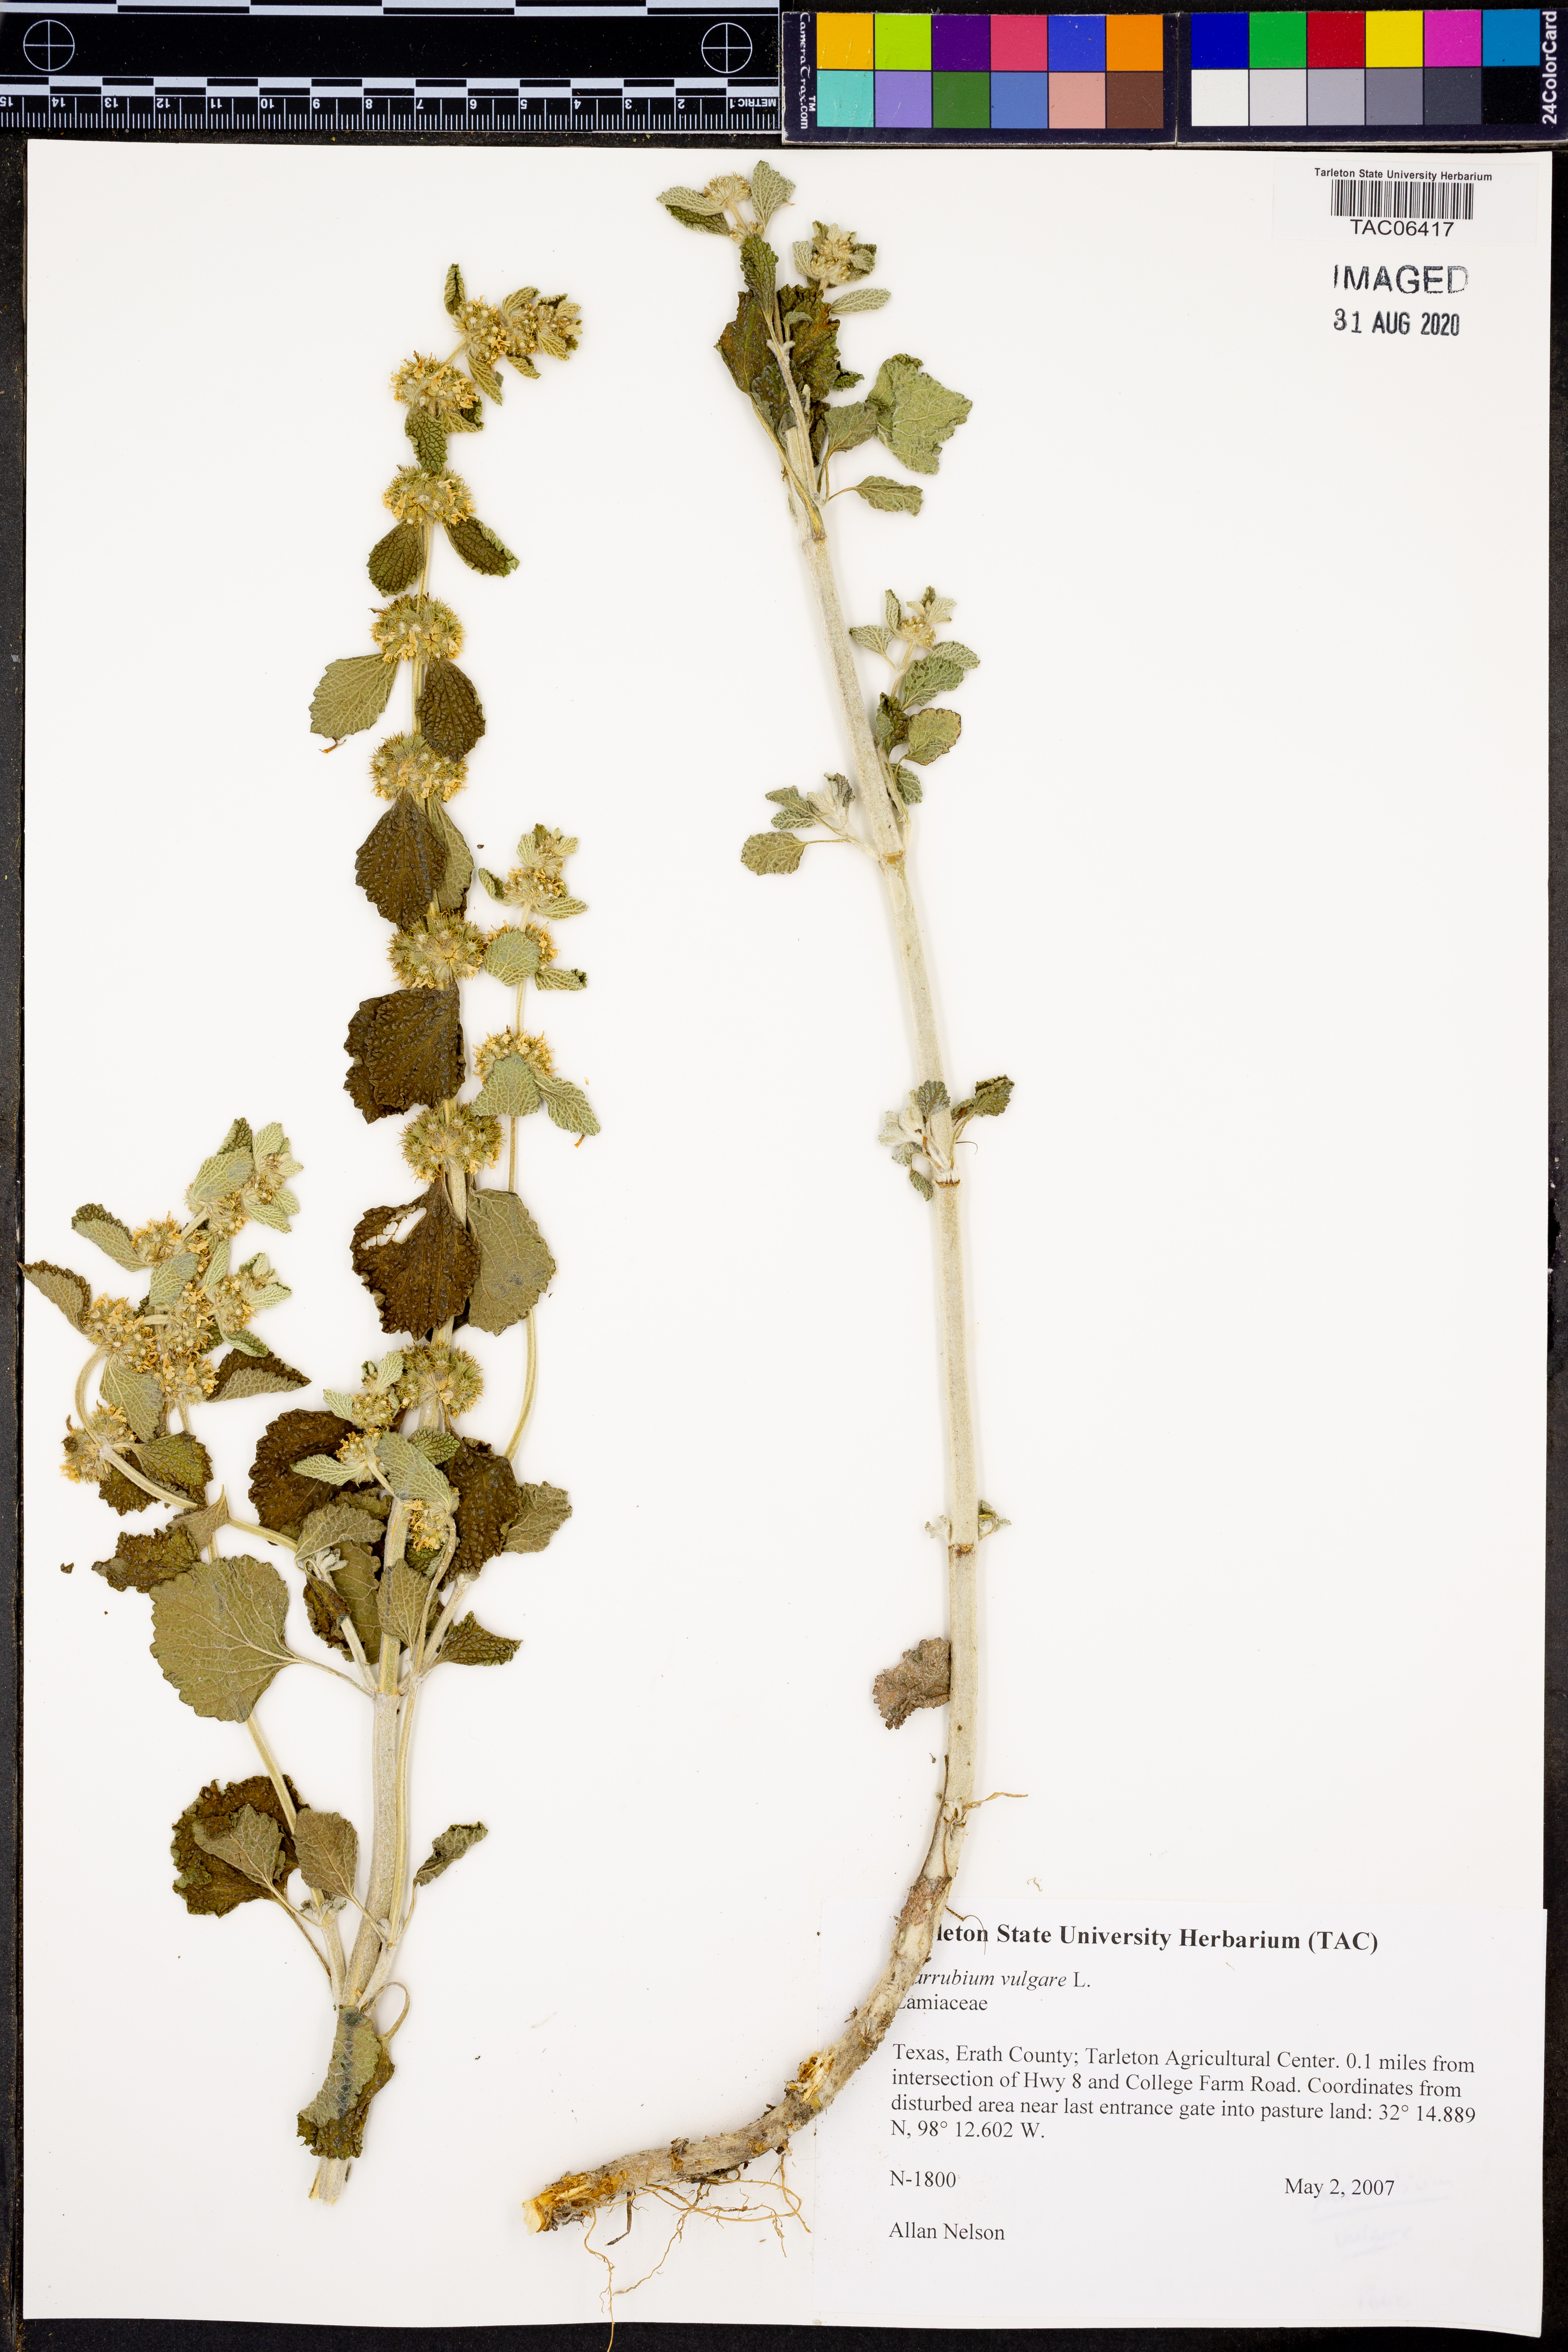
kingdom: Plantae
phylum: Tracheophyta
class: Magnoliopsida
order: Lamiales
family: Lamiaceae
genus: Marrubium
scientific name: Marrubium vulgare
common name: Horehound
